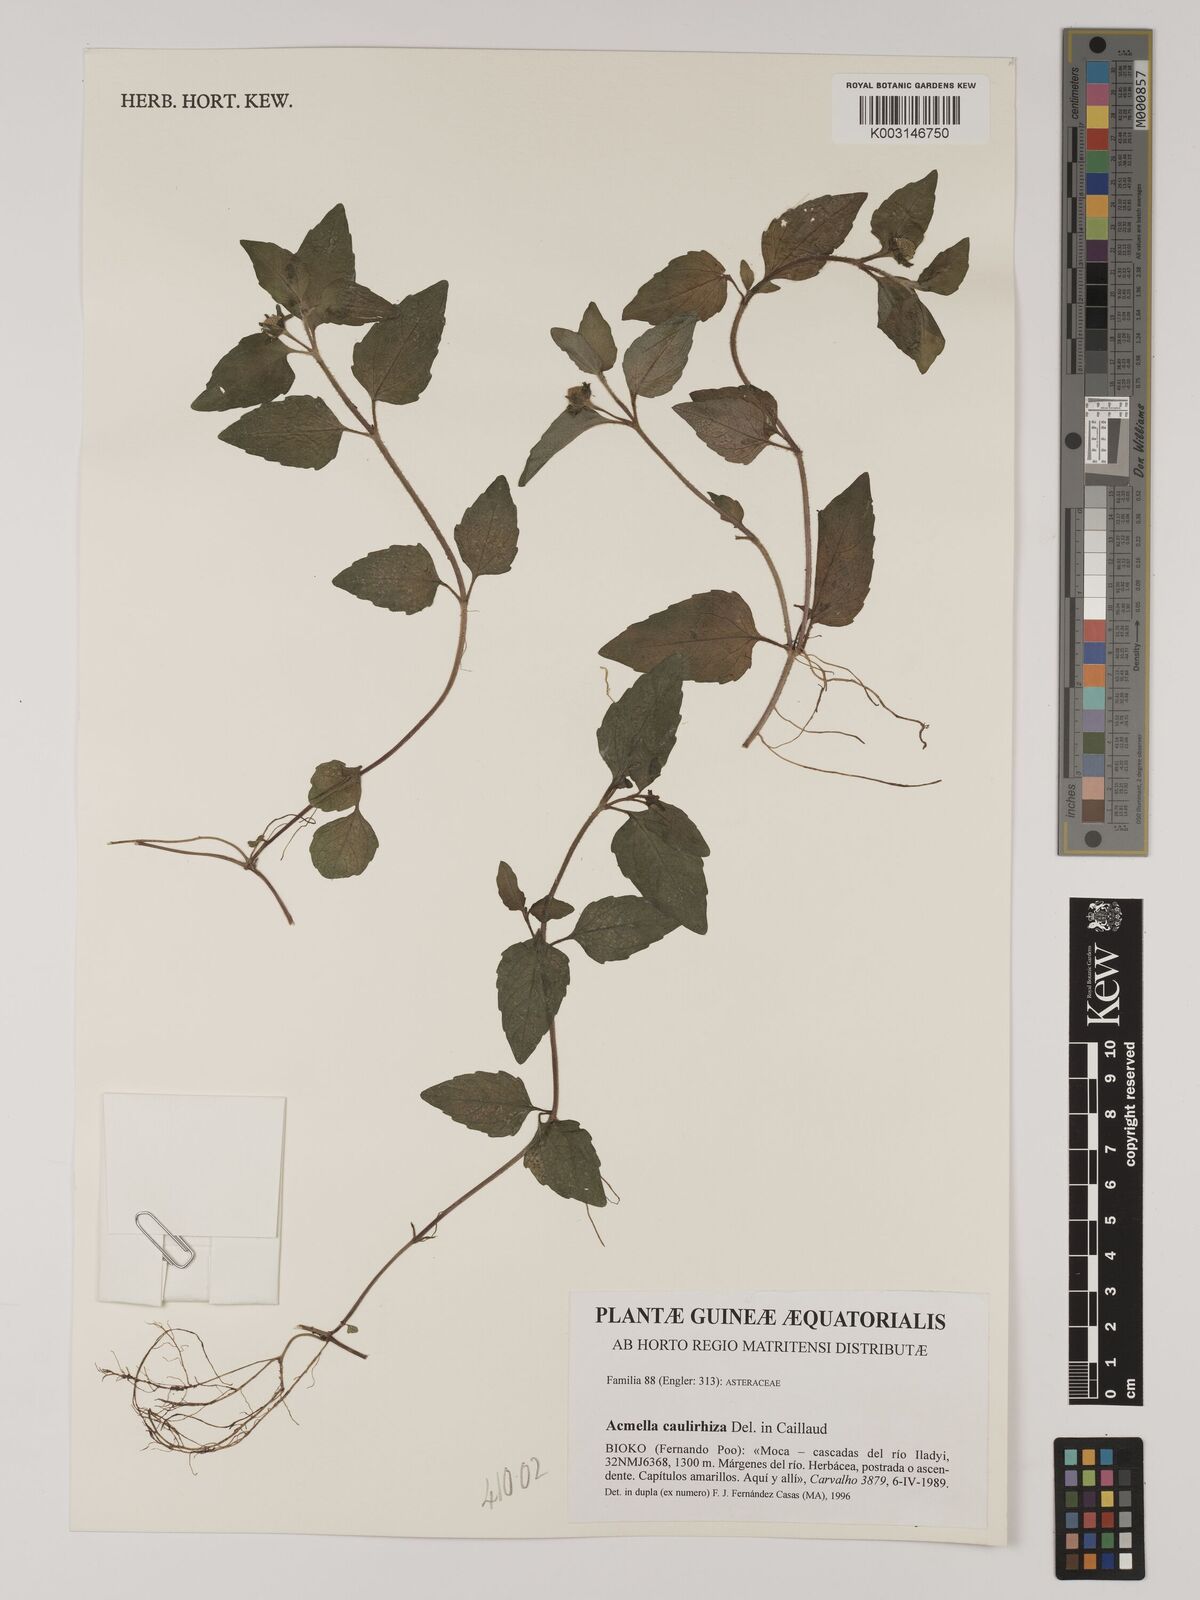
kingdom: Plantae
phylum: Tracheophyta
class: Magnoliopsida
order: Asterales
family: Asteraceae
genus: Acmella
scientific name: Acmella caulirhiza
